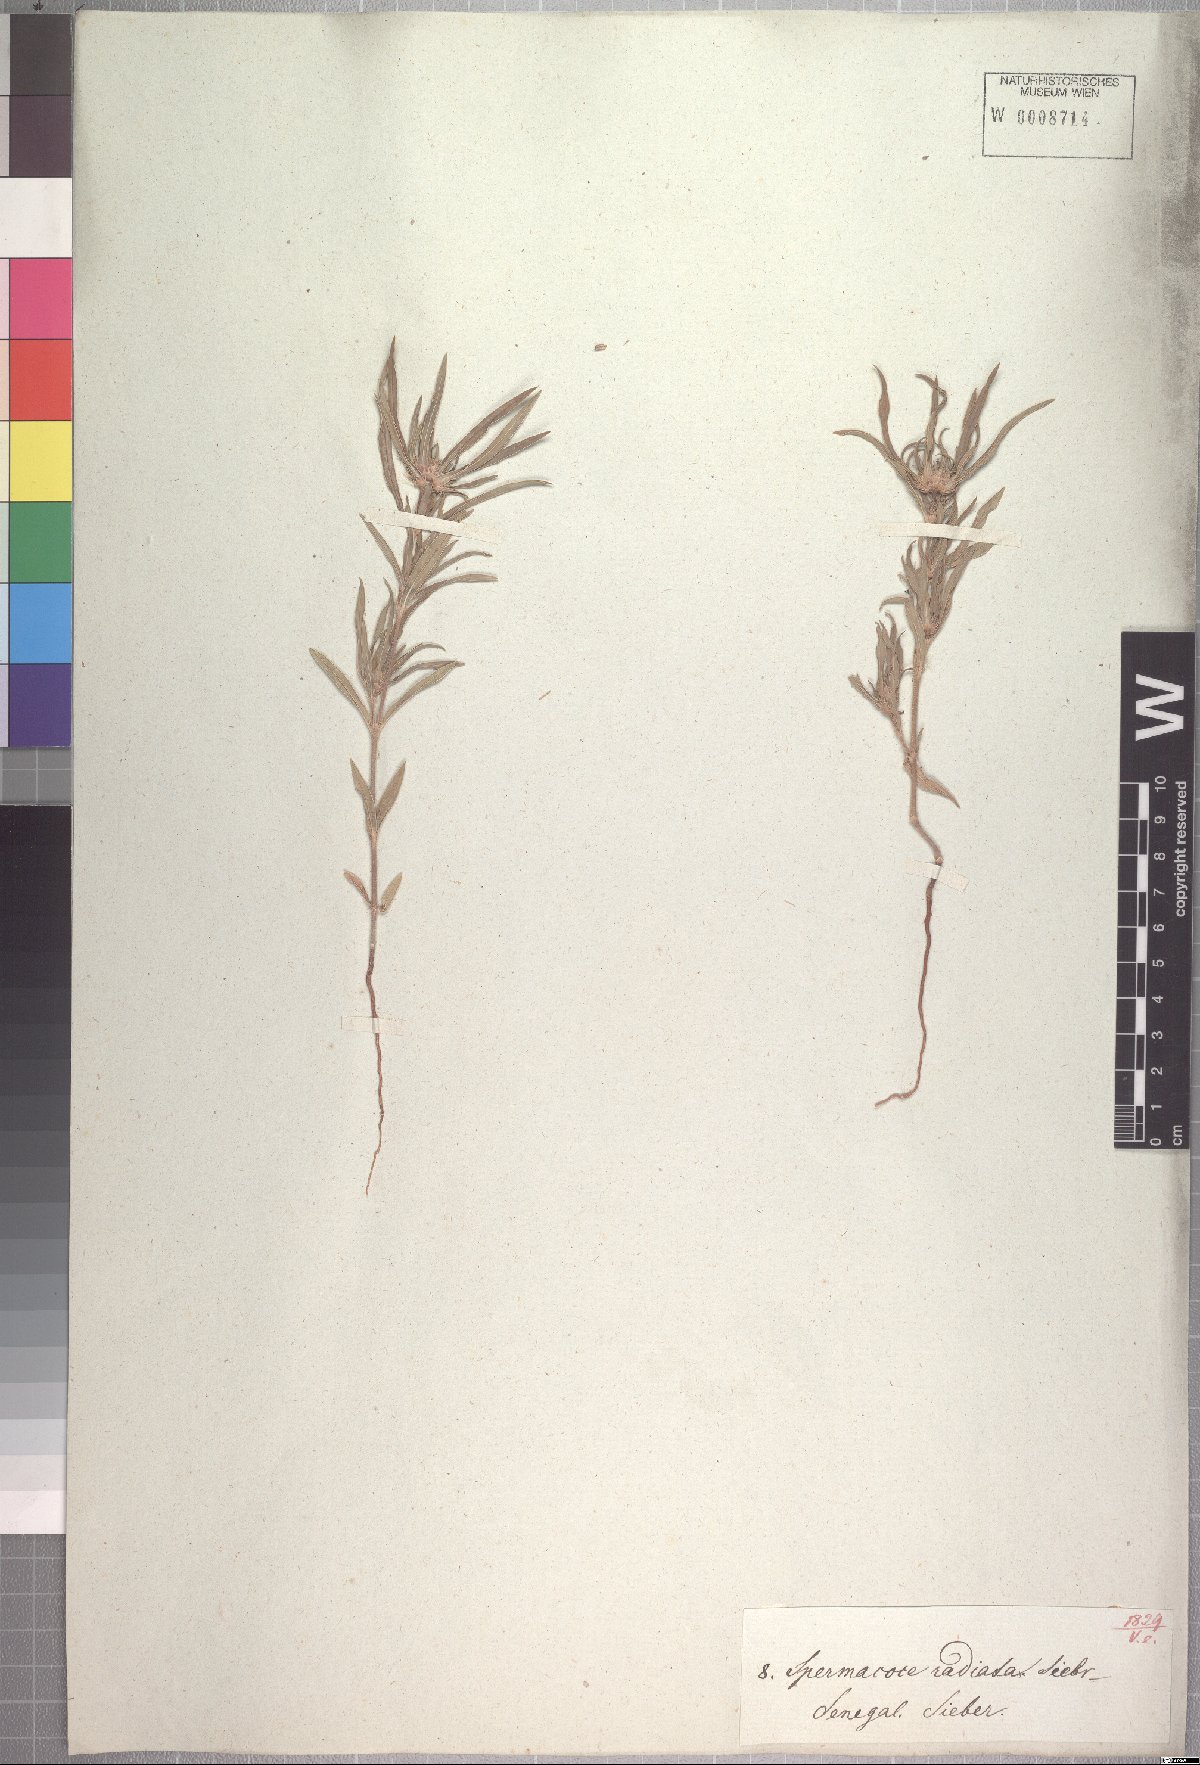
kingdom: Plantae
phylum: Tracheophyta
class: Magnoliopsida
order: Gentianales
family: Rubiaceae
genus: Spermacoce
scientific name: Spermacoce radiata
